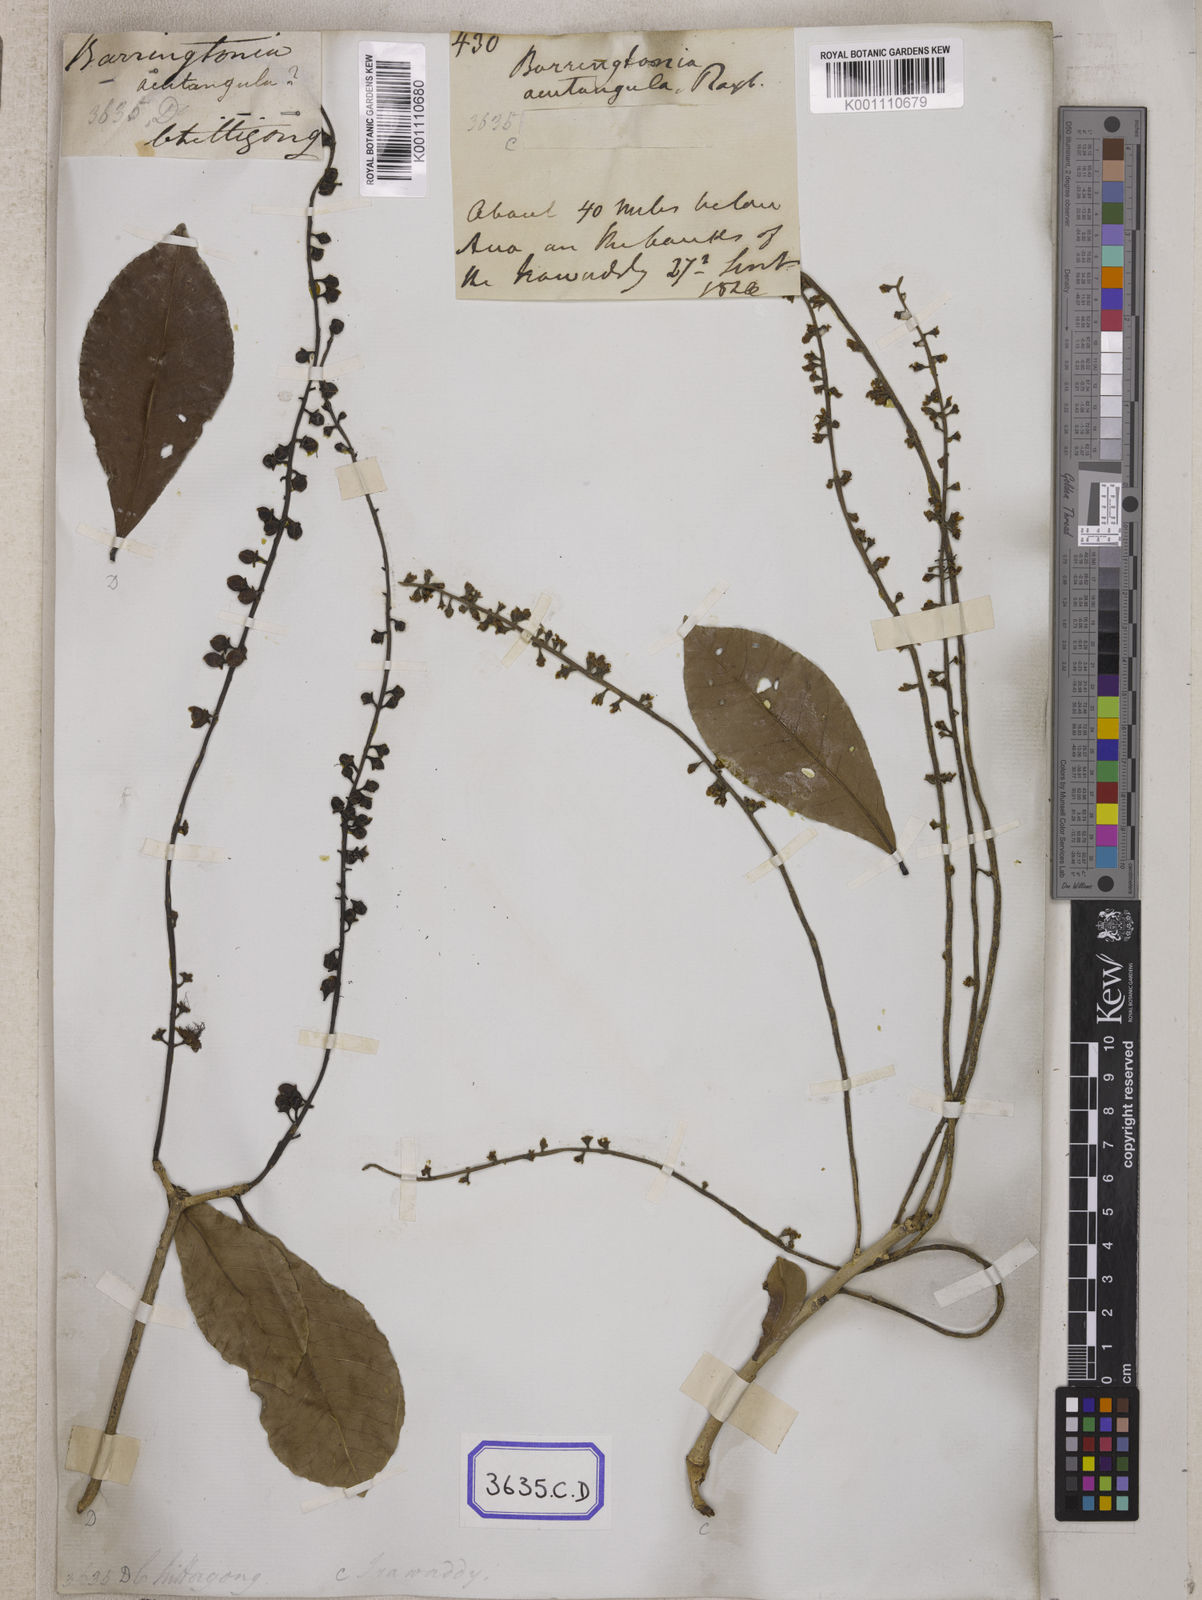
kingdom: Plantae
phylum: Tracheophyta
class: Magnoliopsida
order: Ericales
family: Lecythidaceae
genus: Barringtonia
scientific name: Barringtonia acutangula
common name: Freshwater mangrove
